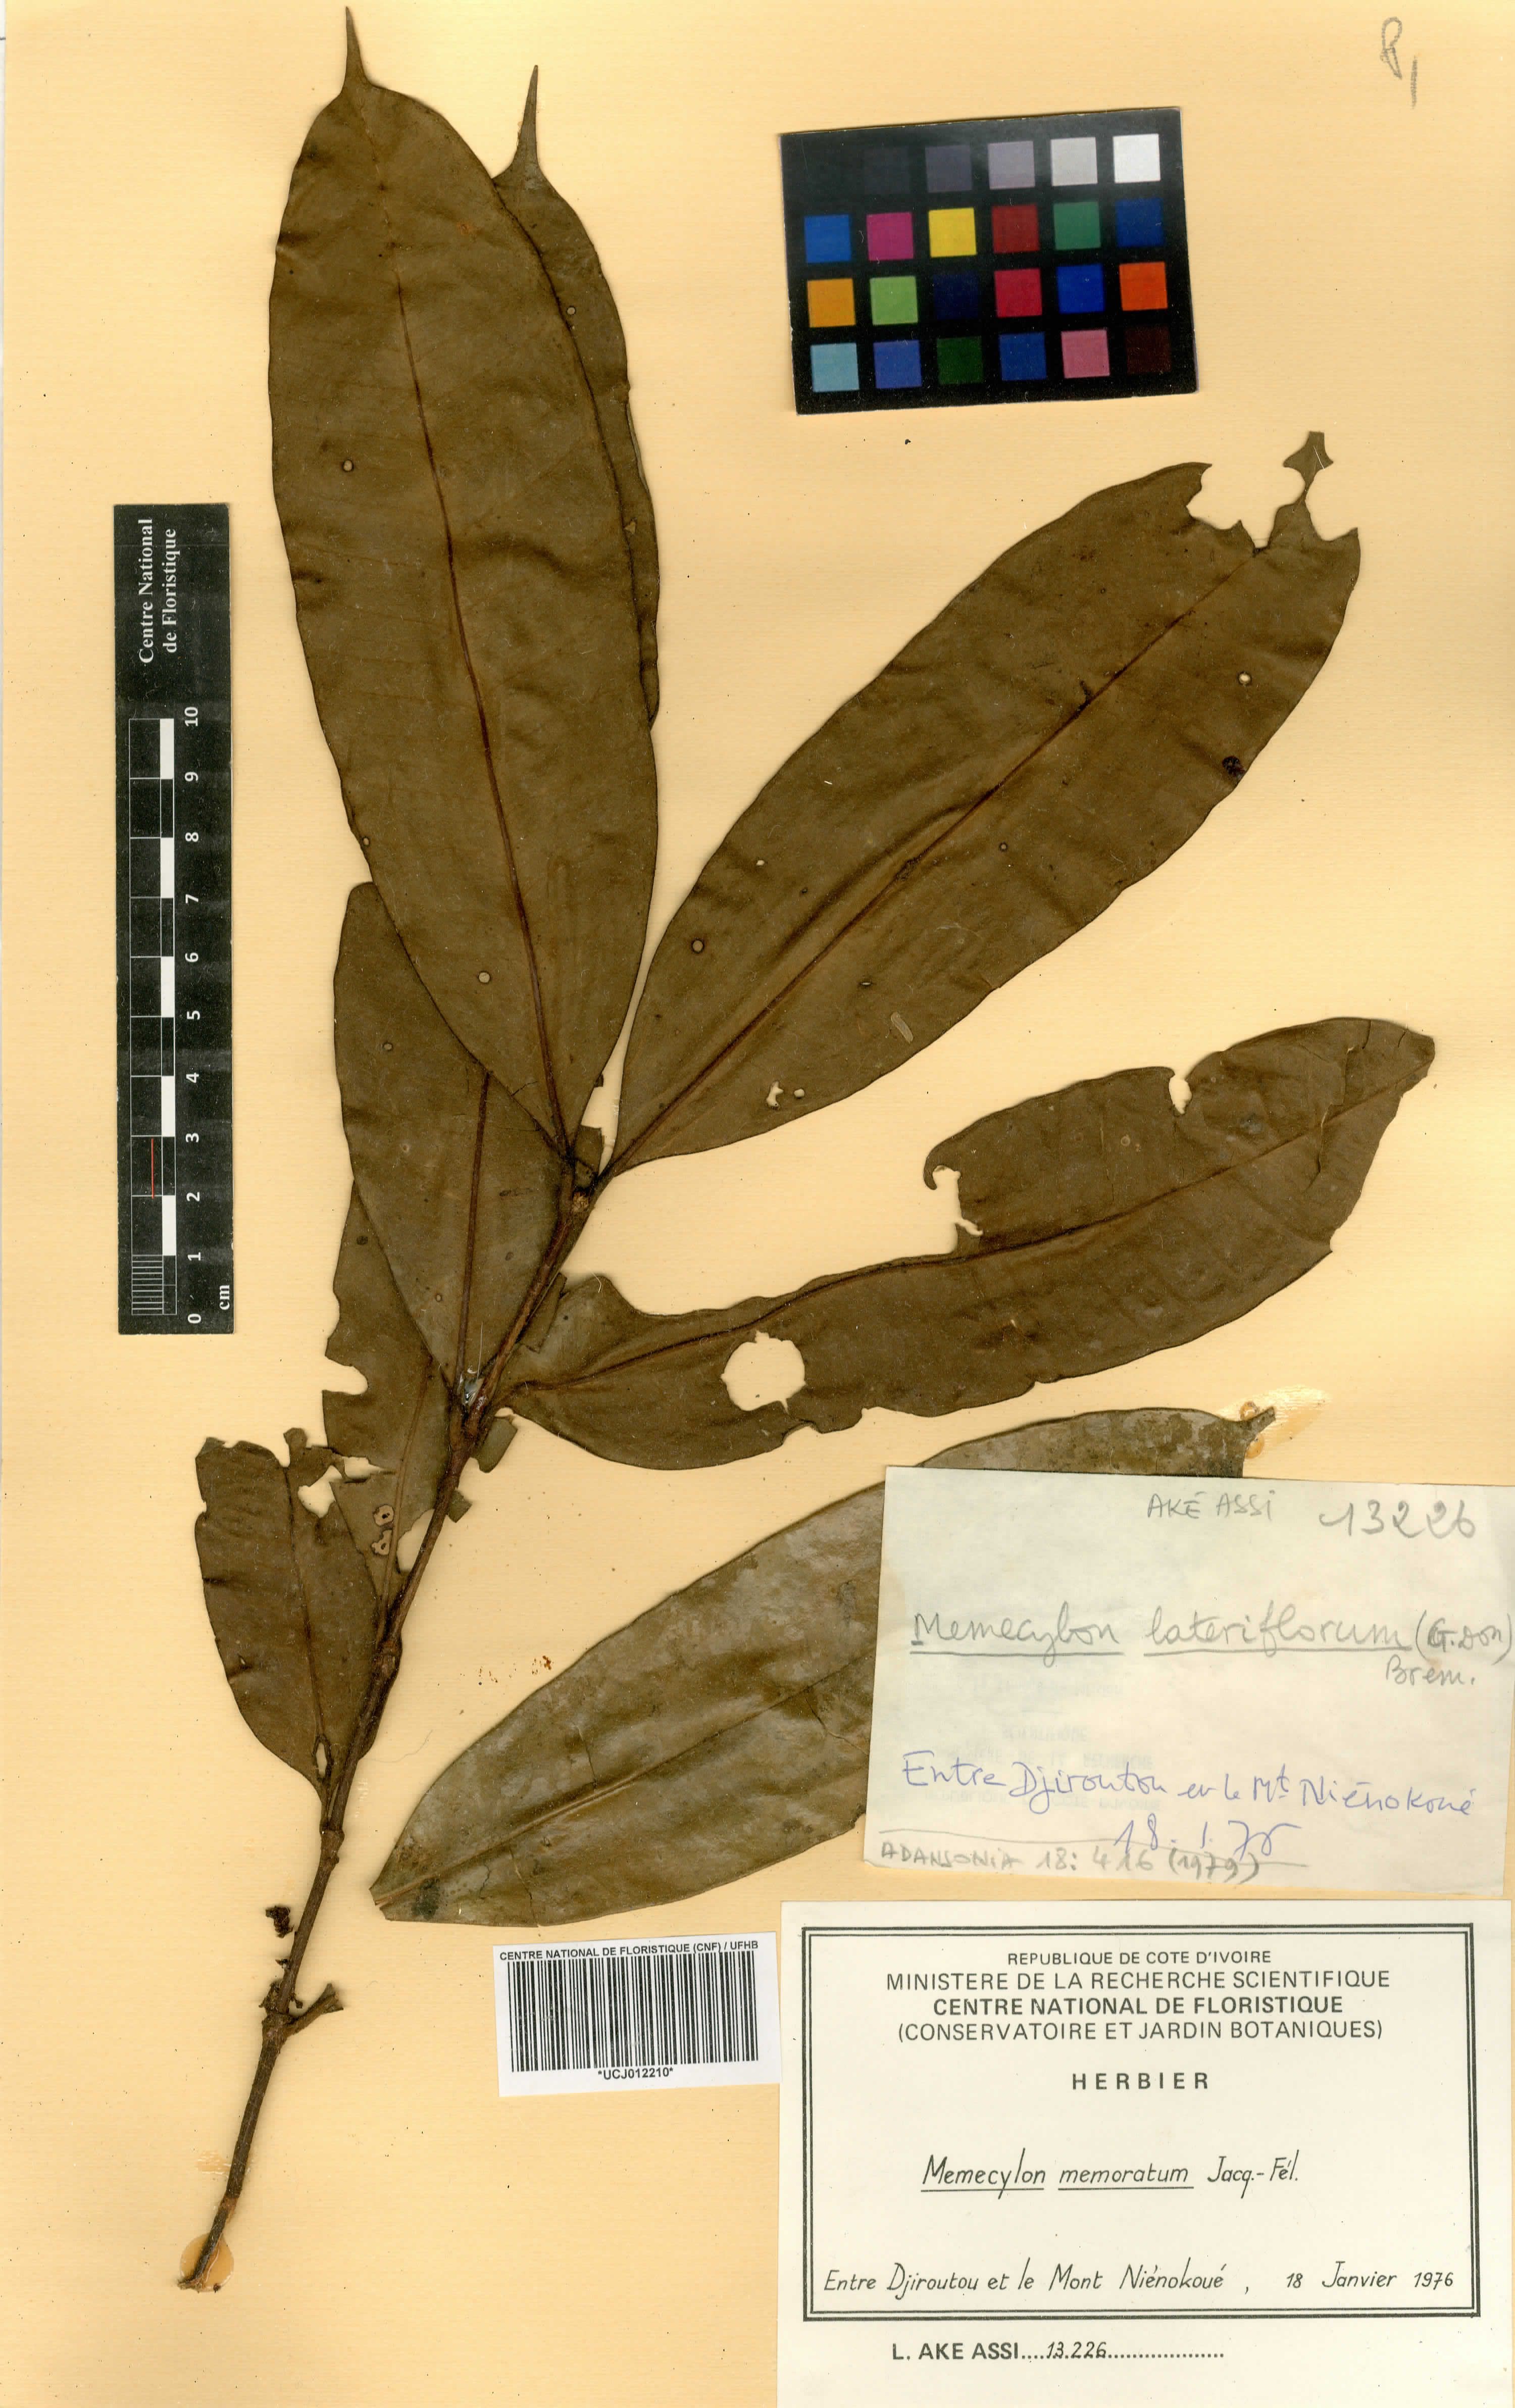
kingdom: Plantae
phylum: Tracheophyta
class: Magnoliopsida
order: Myrtales
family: Melastomataceae
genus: Memecylon
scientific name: Memecylon memoratum
